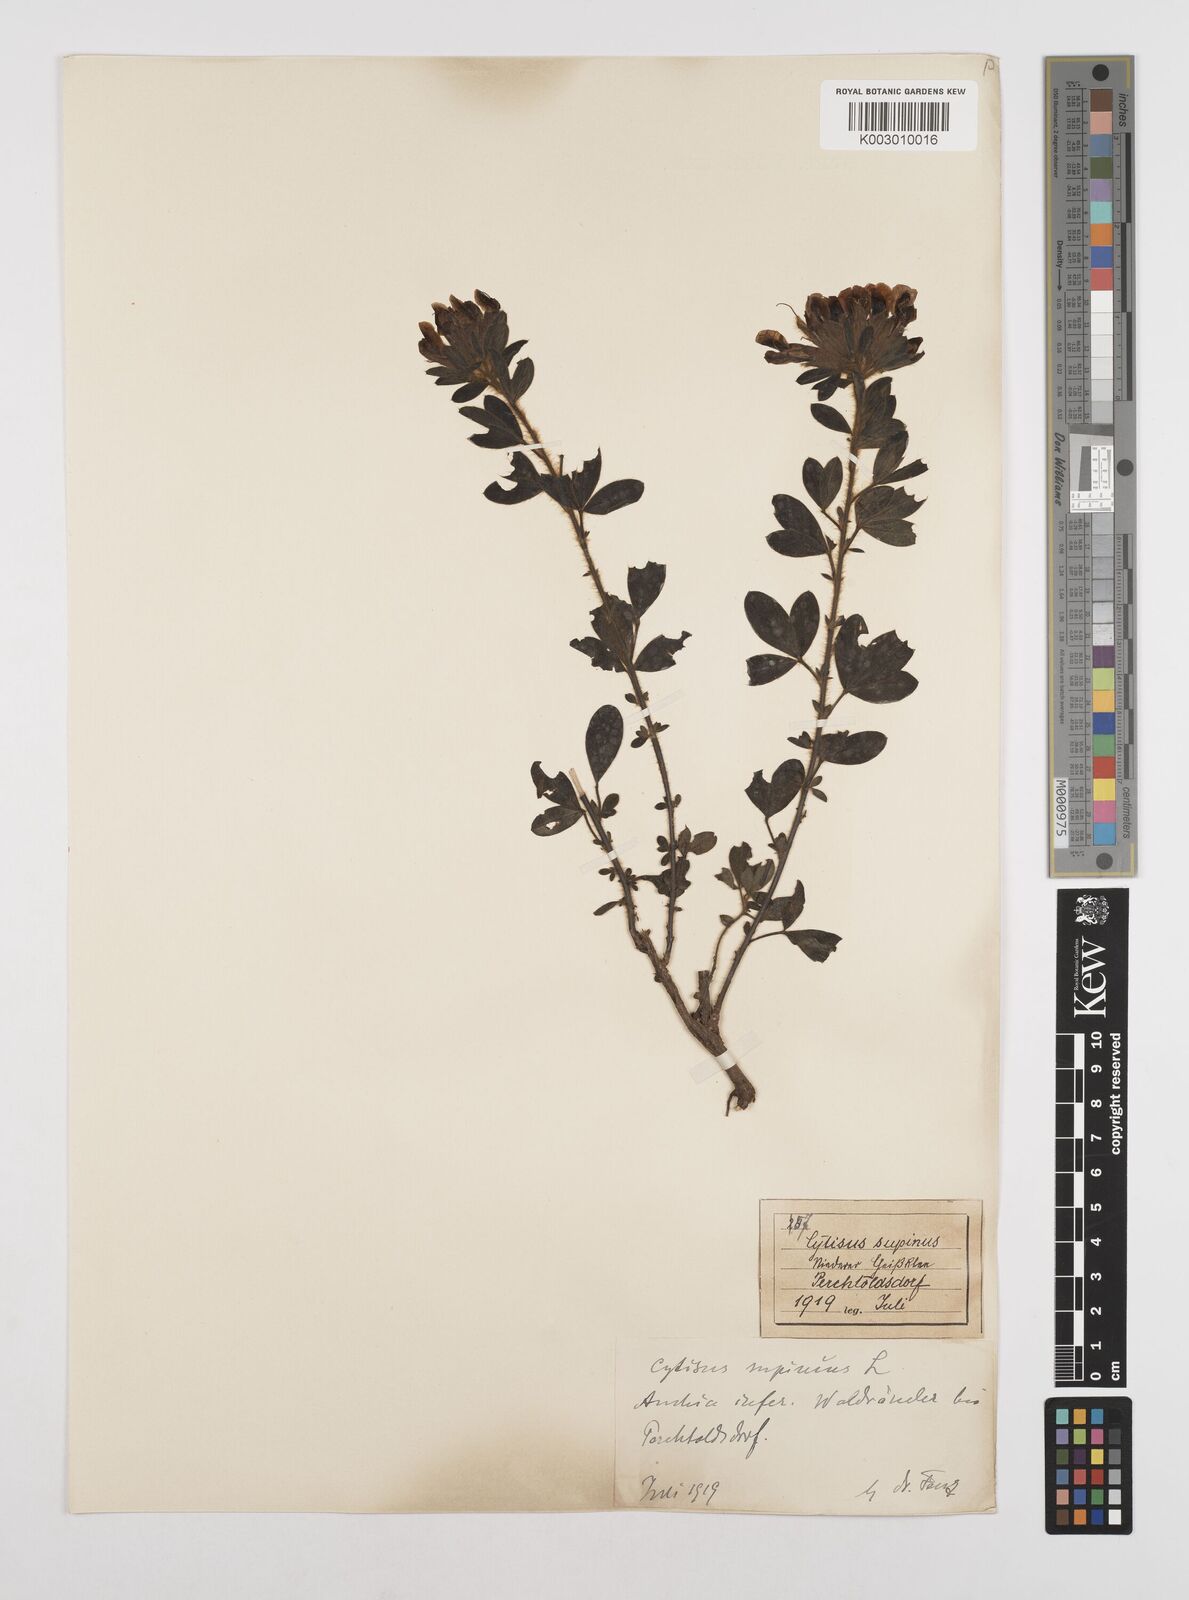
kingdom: Plantae
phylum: Tracheophyta
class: Magnoliopsida
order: Fabales
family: Fabaceae
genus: Chamaecytisus
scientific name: Chamaecytisus hirsutus
